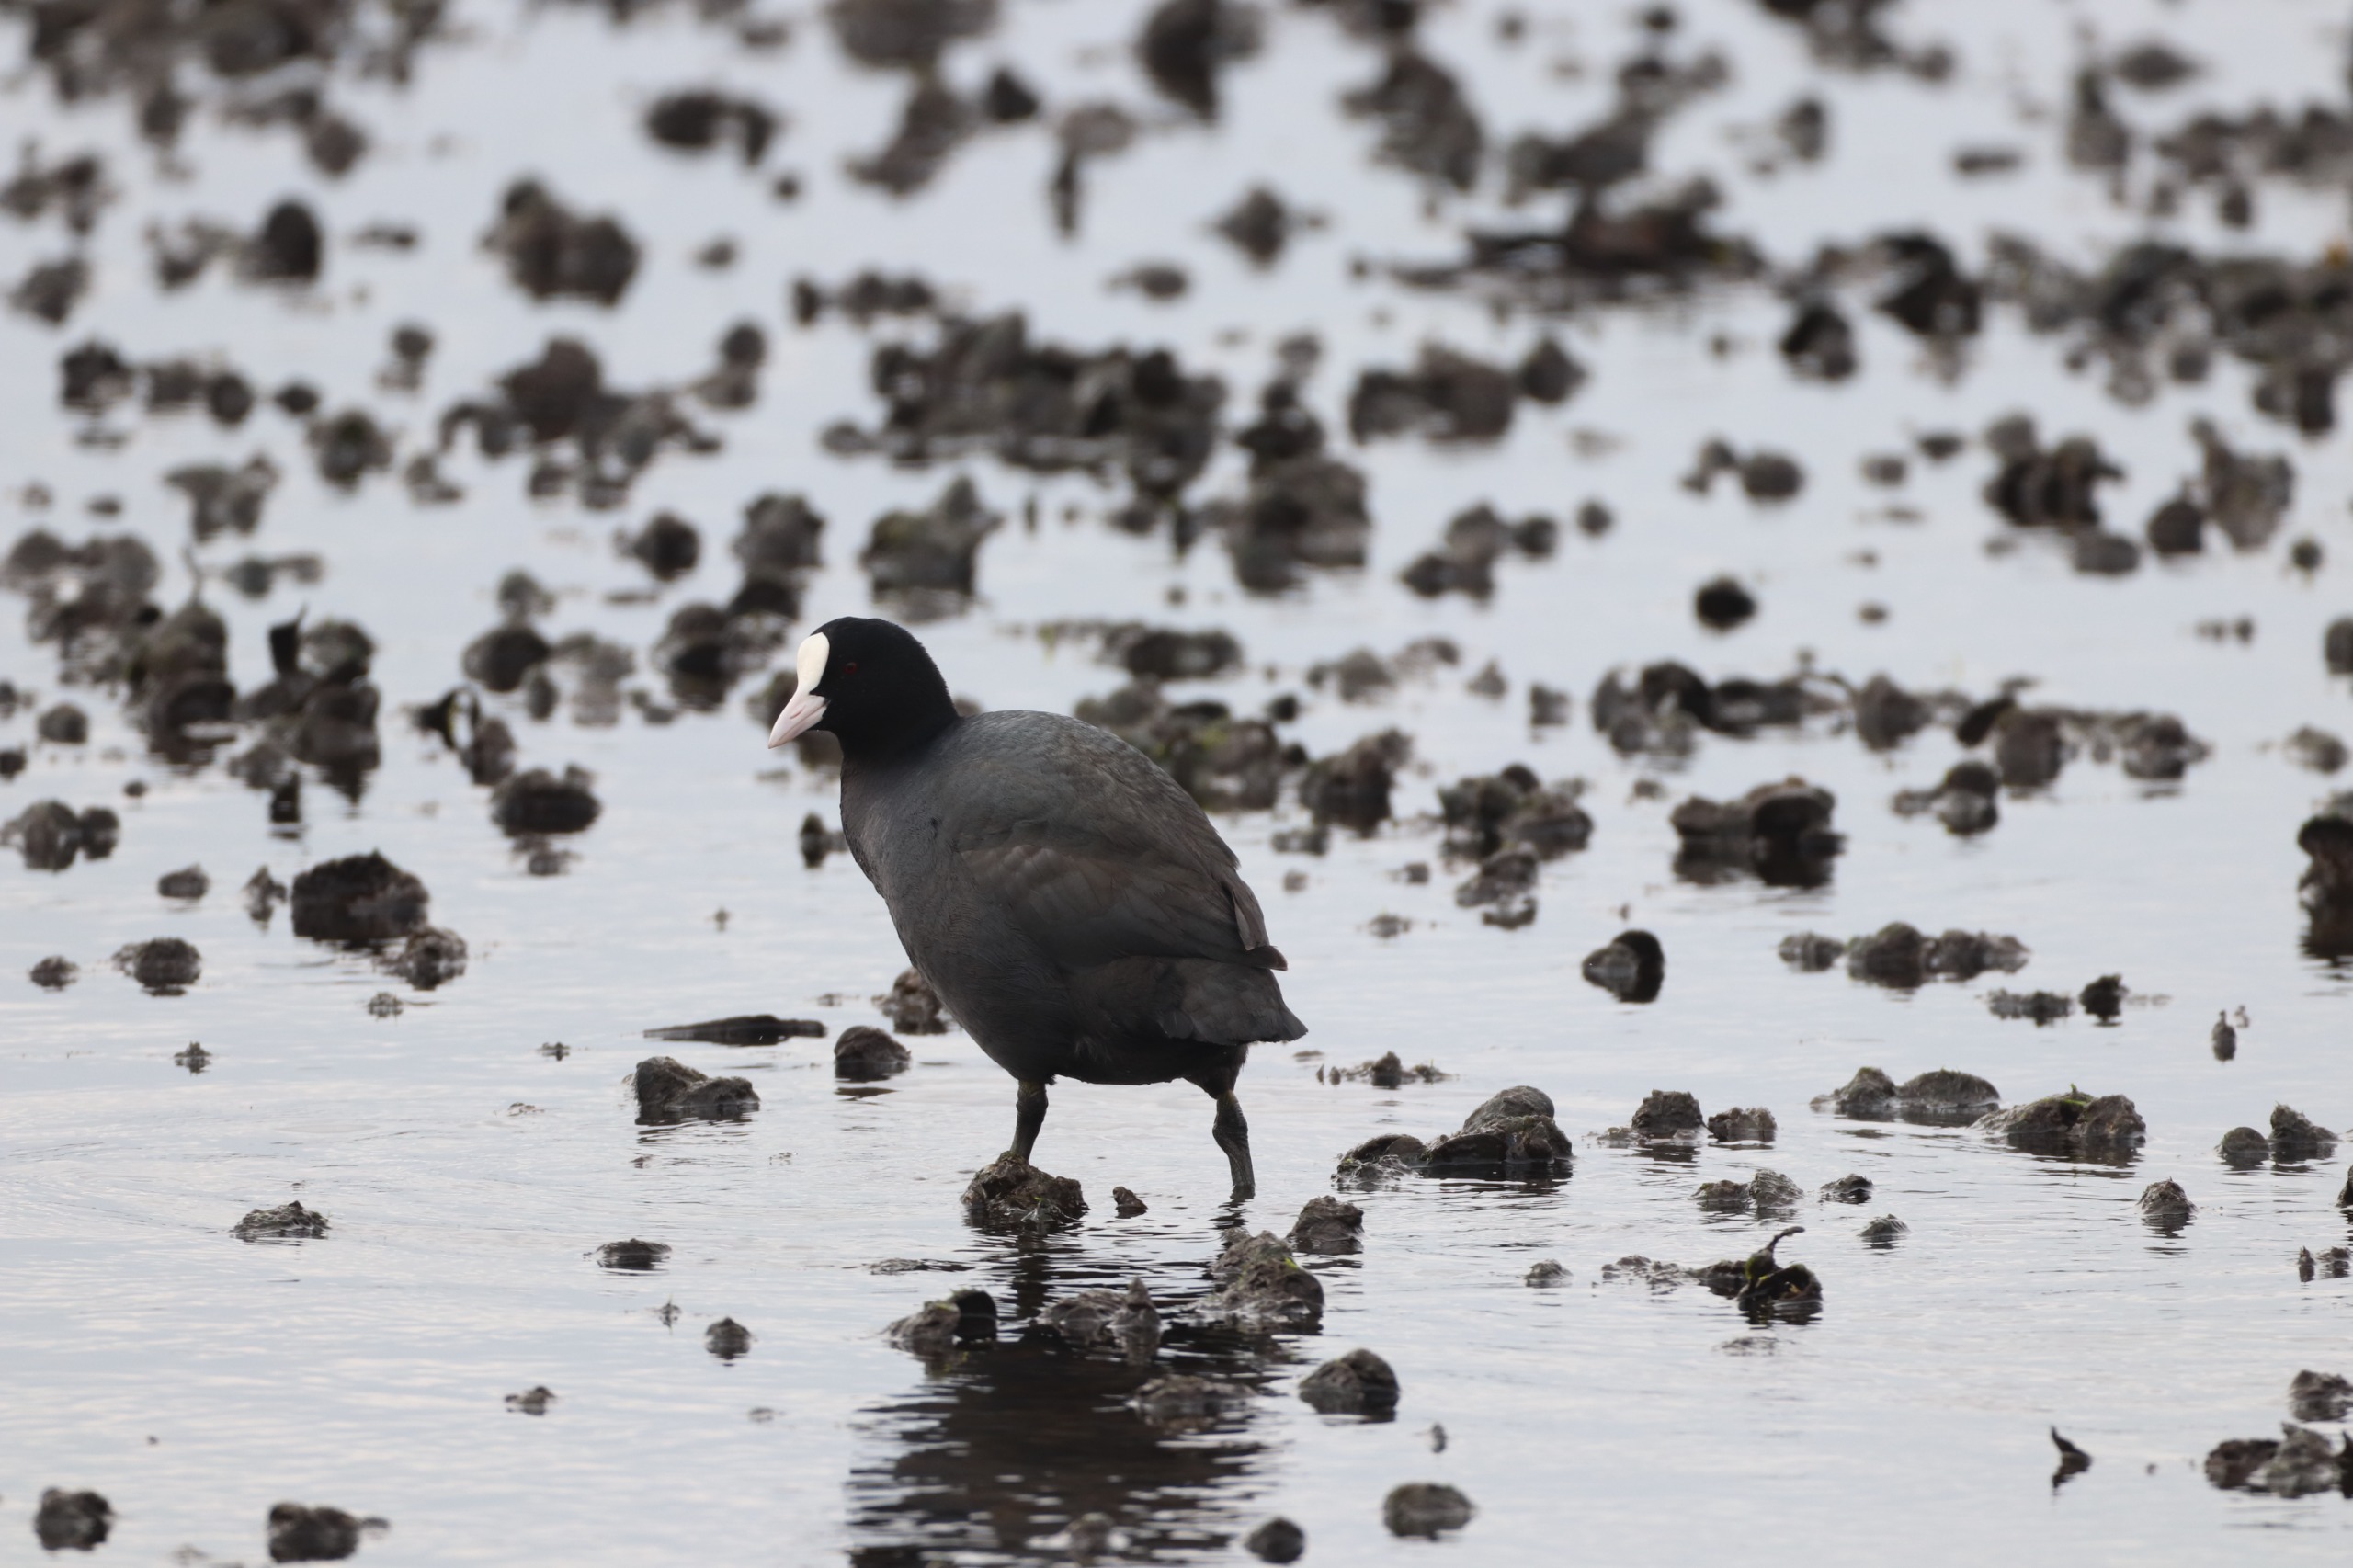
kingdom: Animalia
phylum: Chordata
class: Aves
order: Gruiformes
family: Rallidae
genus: Fulica
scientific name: Fulica atra
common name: Blishøne
